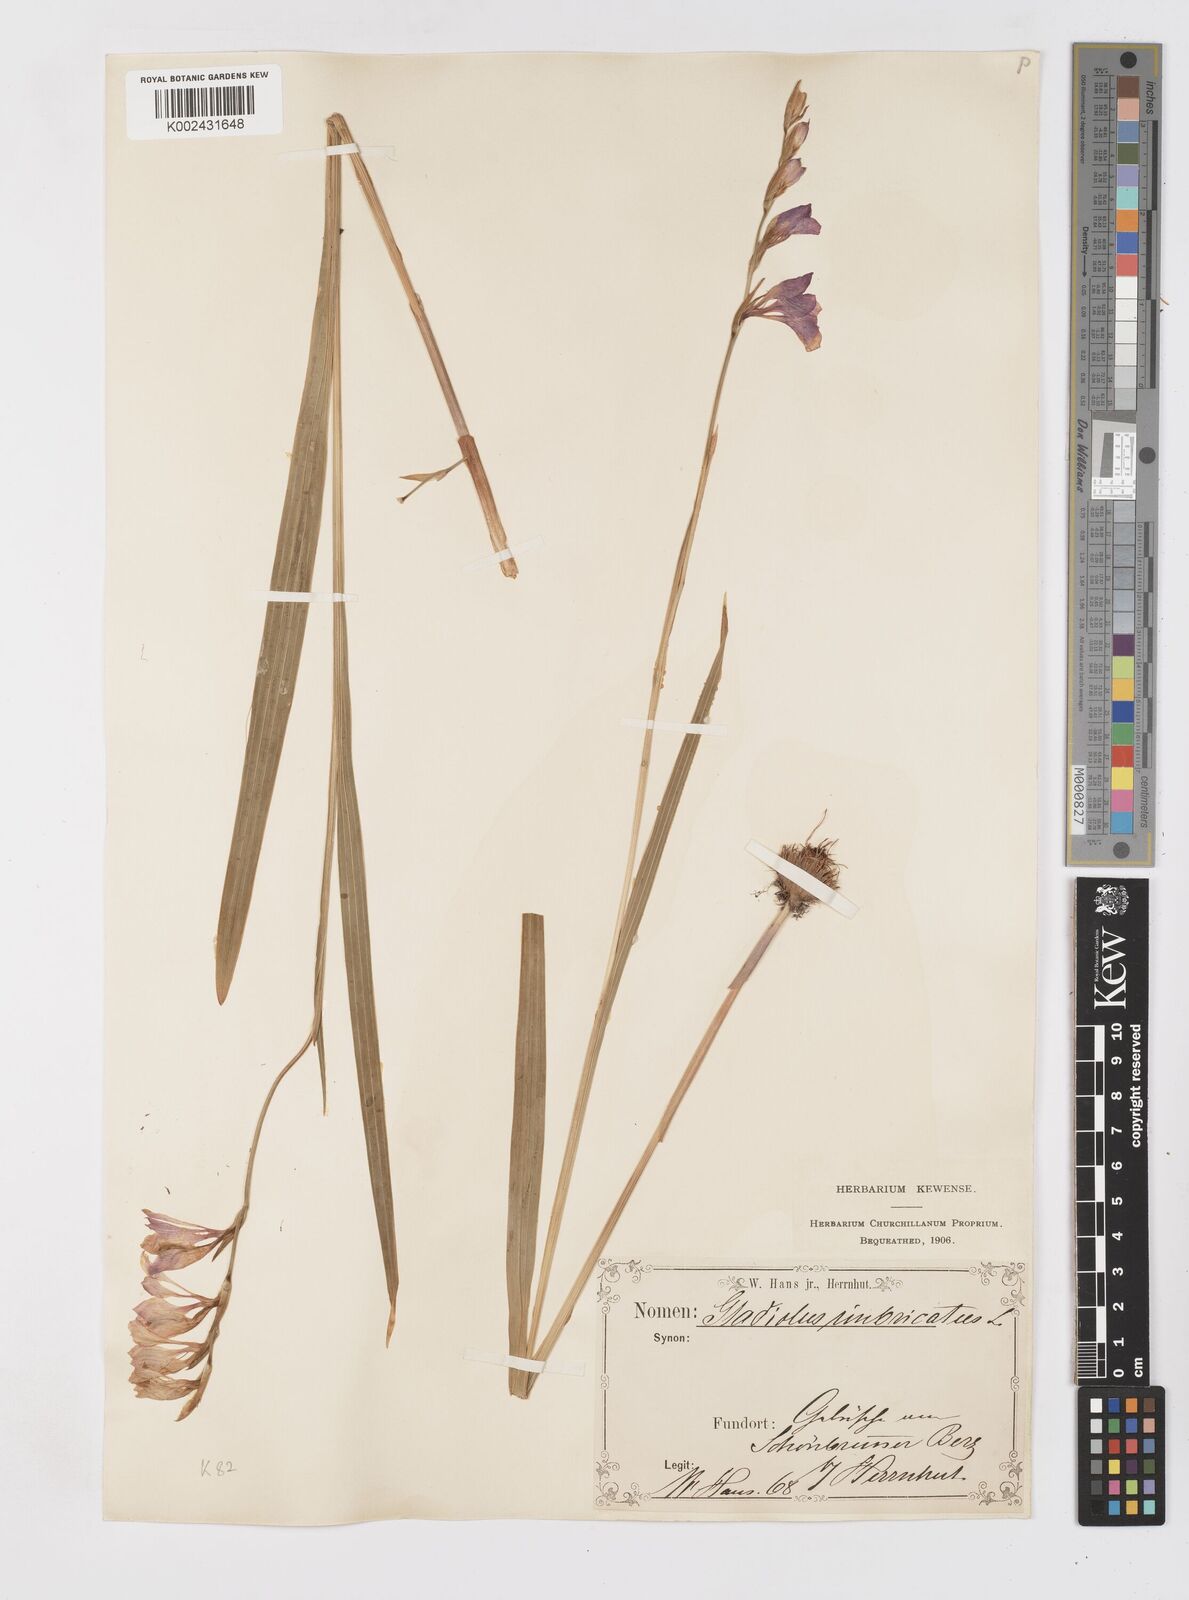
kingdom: Plantae
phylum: Tracheophyta
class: Liliopsida
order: Asparagales
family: Iridaceae
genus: Gladiolus
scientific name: Gladiolus imbricatus
